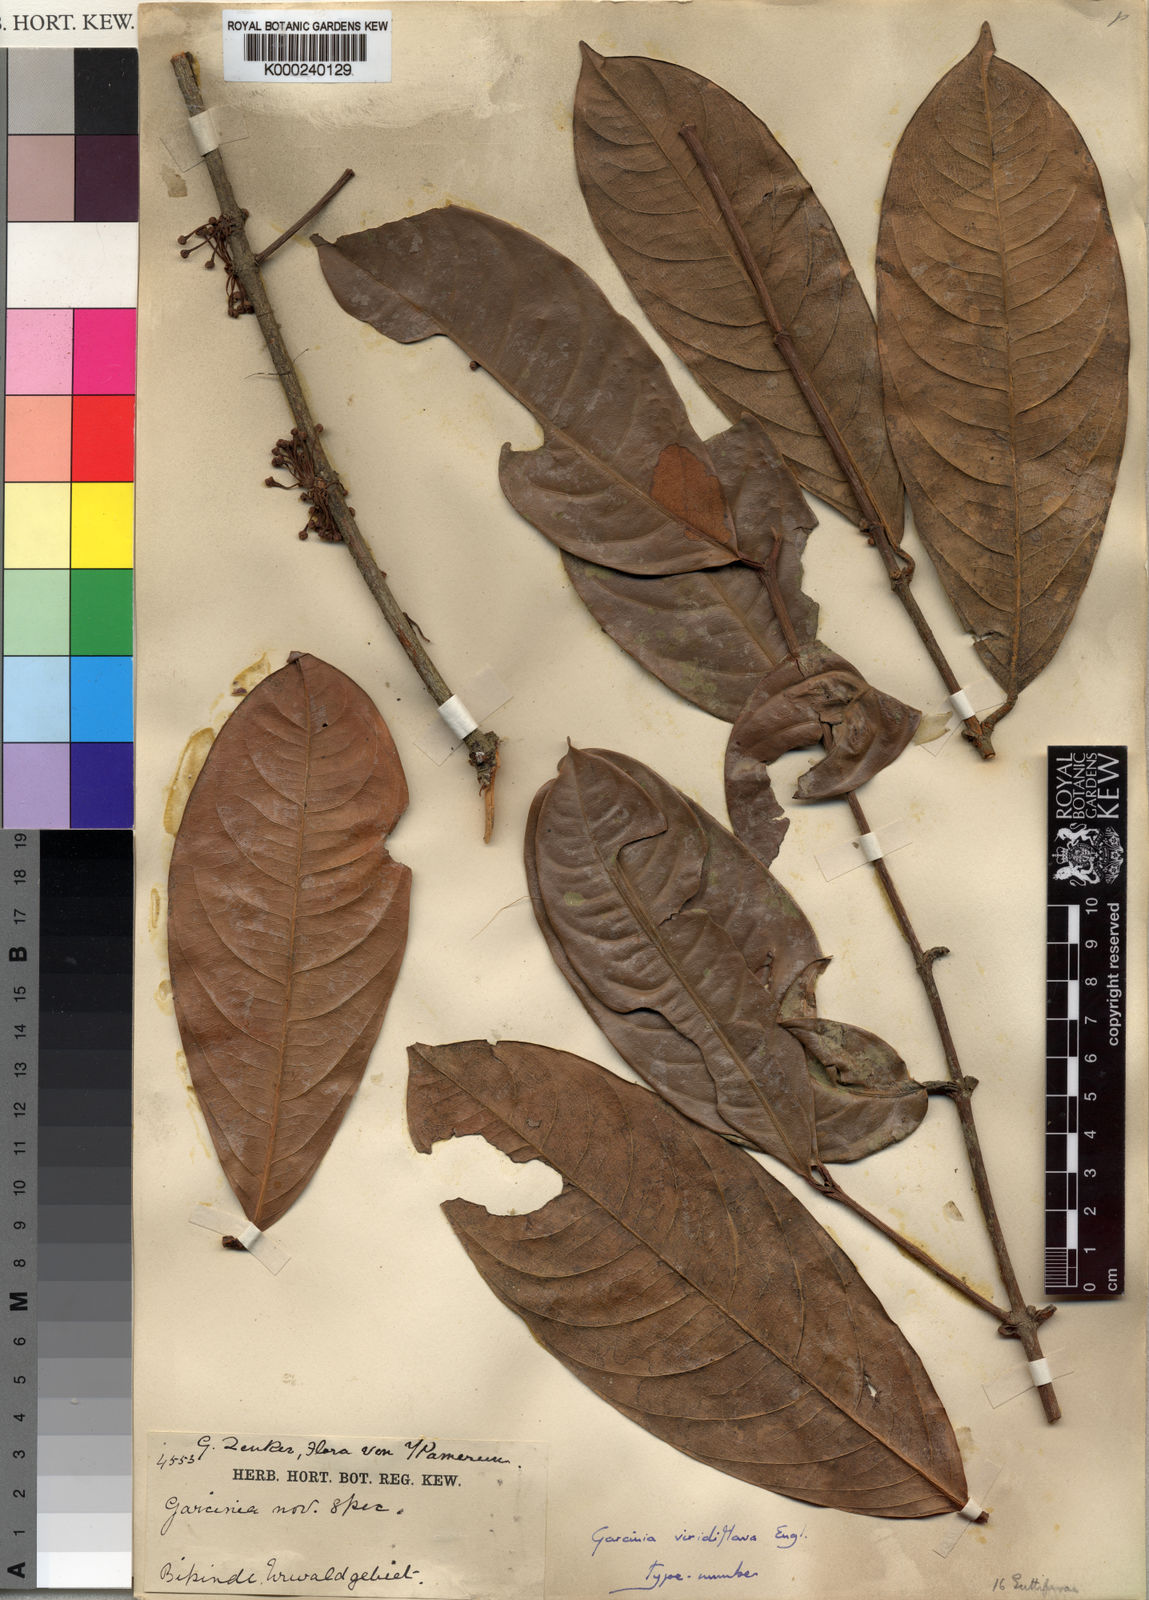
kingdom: Plantae
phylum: Tracheophyta
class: Magnoliopsida
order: Malpighiales
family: Clusiaceae
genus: Garcinia
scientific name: Garcinia smeathmannii
